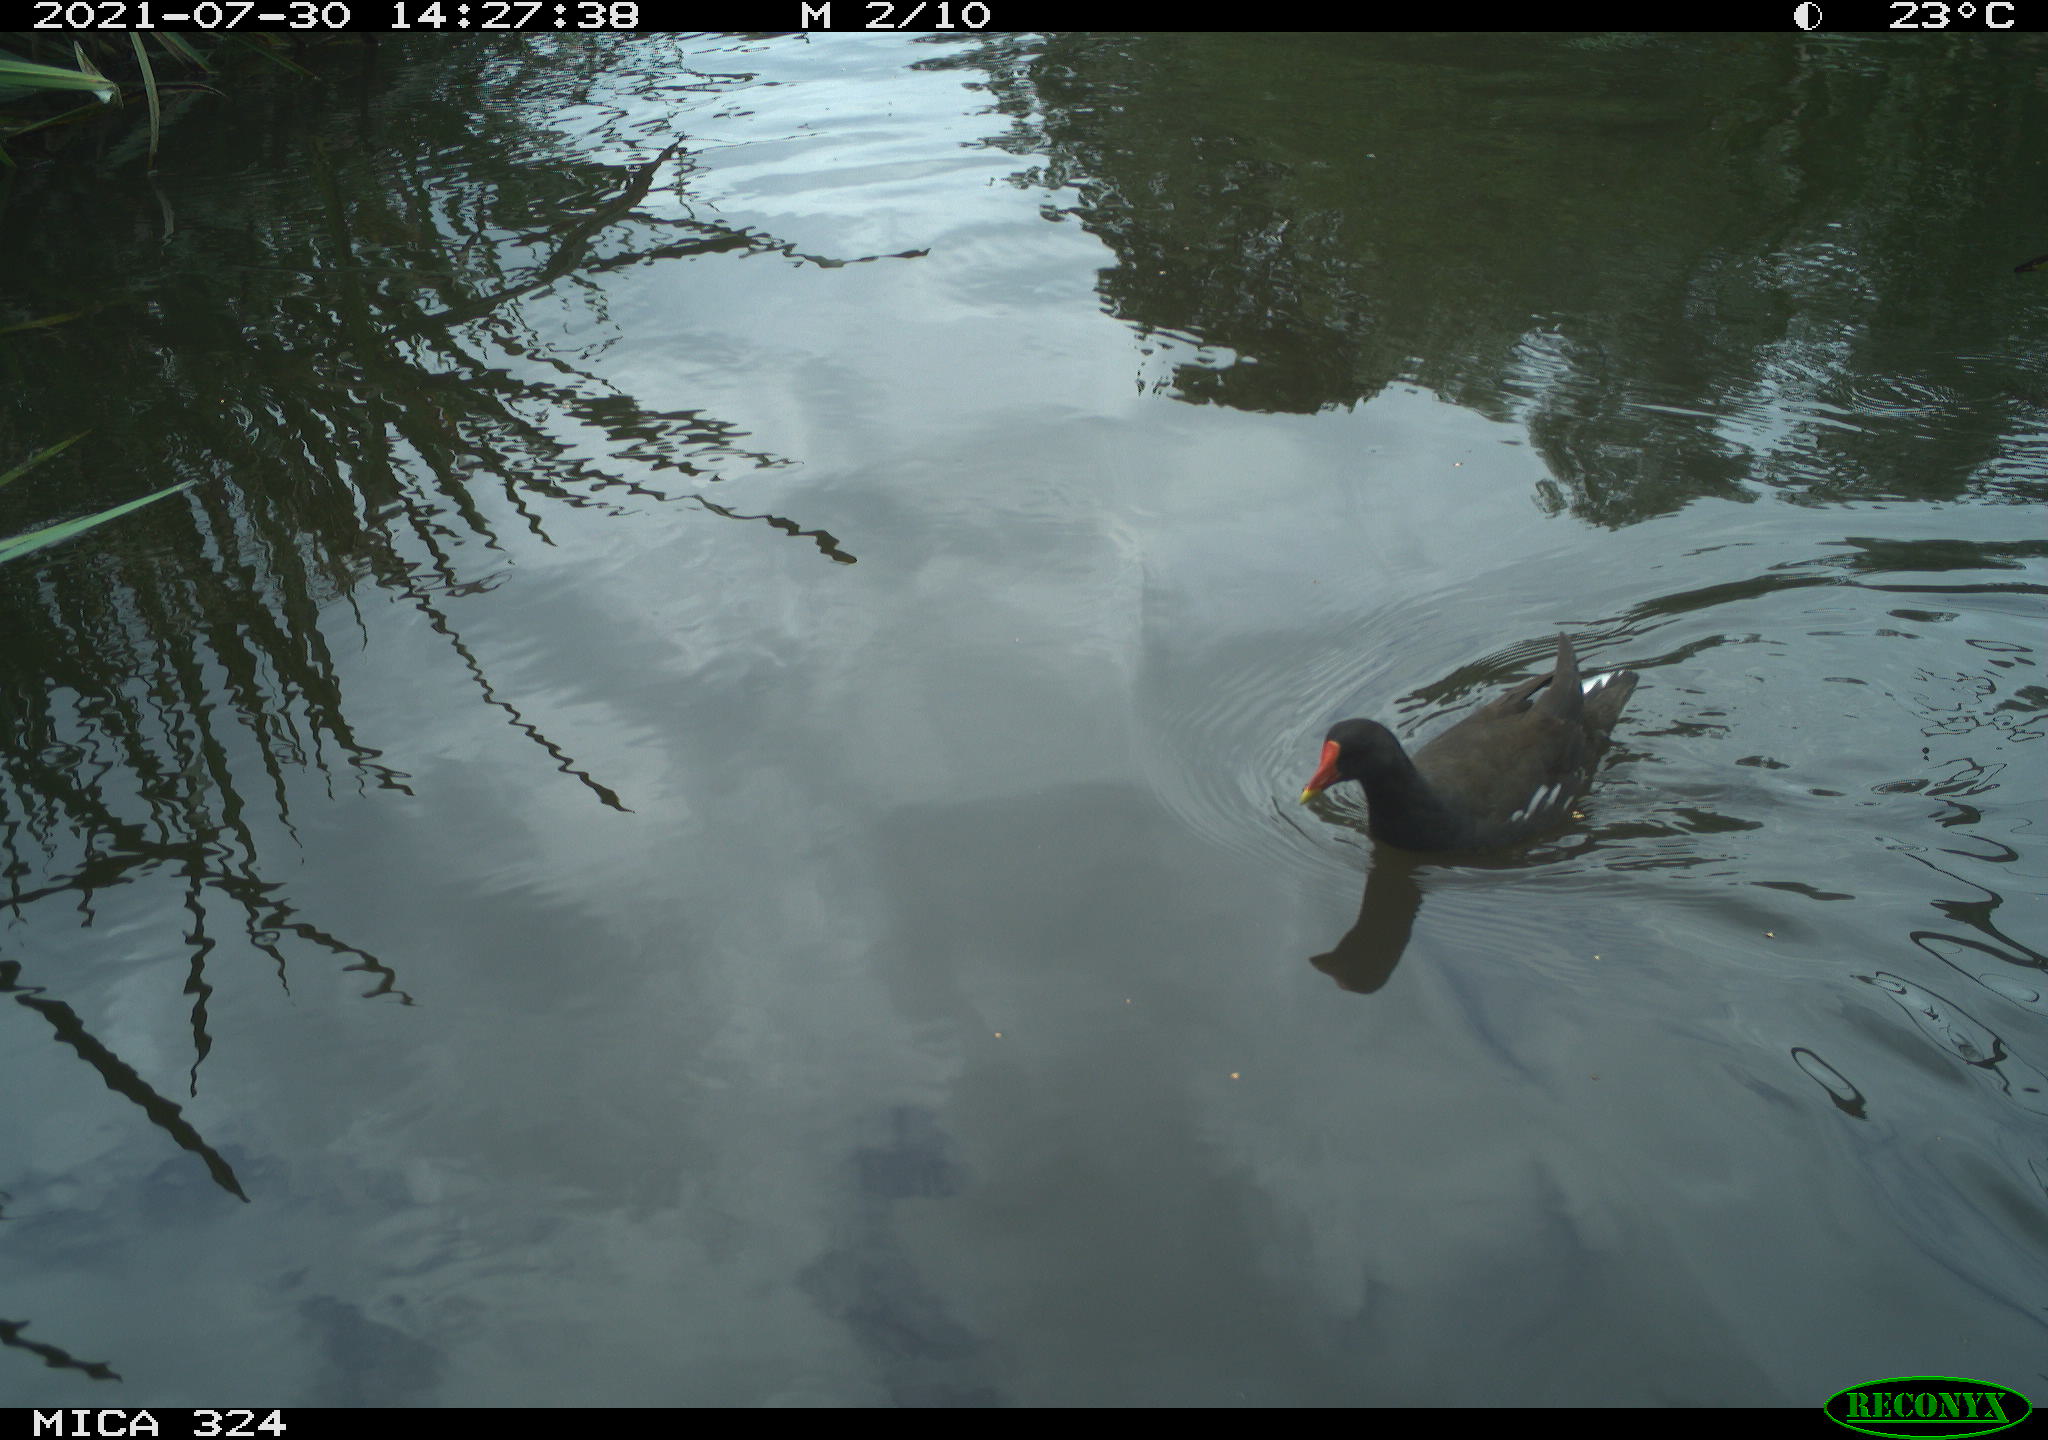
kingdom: Animalia
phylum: Chordata
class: Aves
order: Gruiformes
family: Rallidae
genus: Gallinula
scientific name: Gallinula chloropus
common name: Common moorhen
